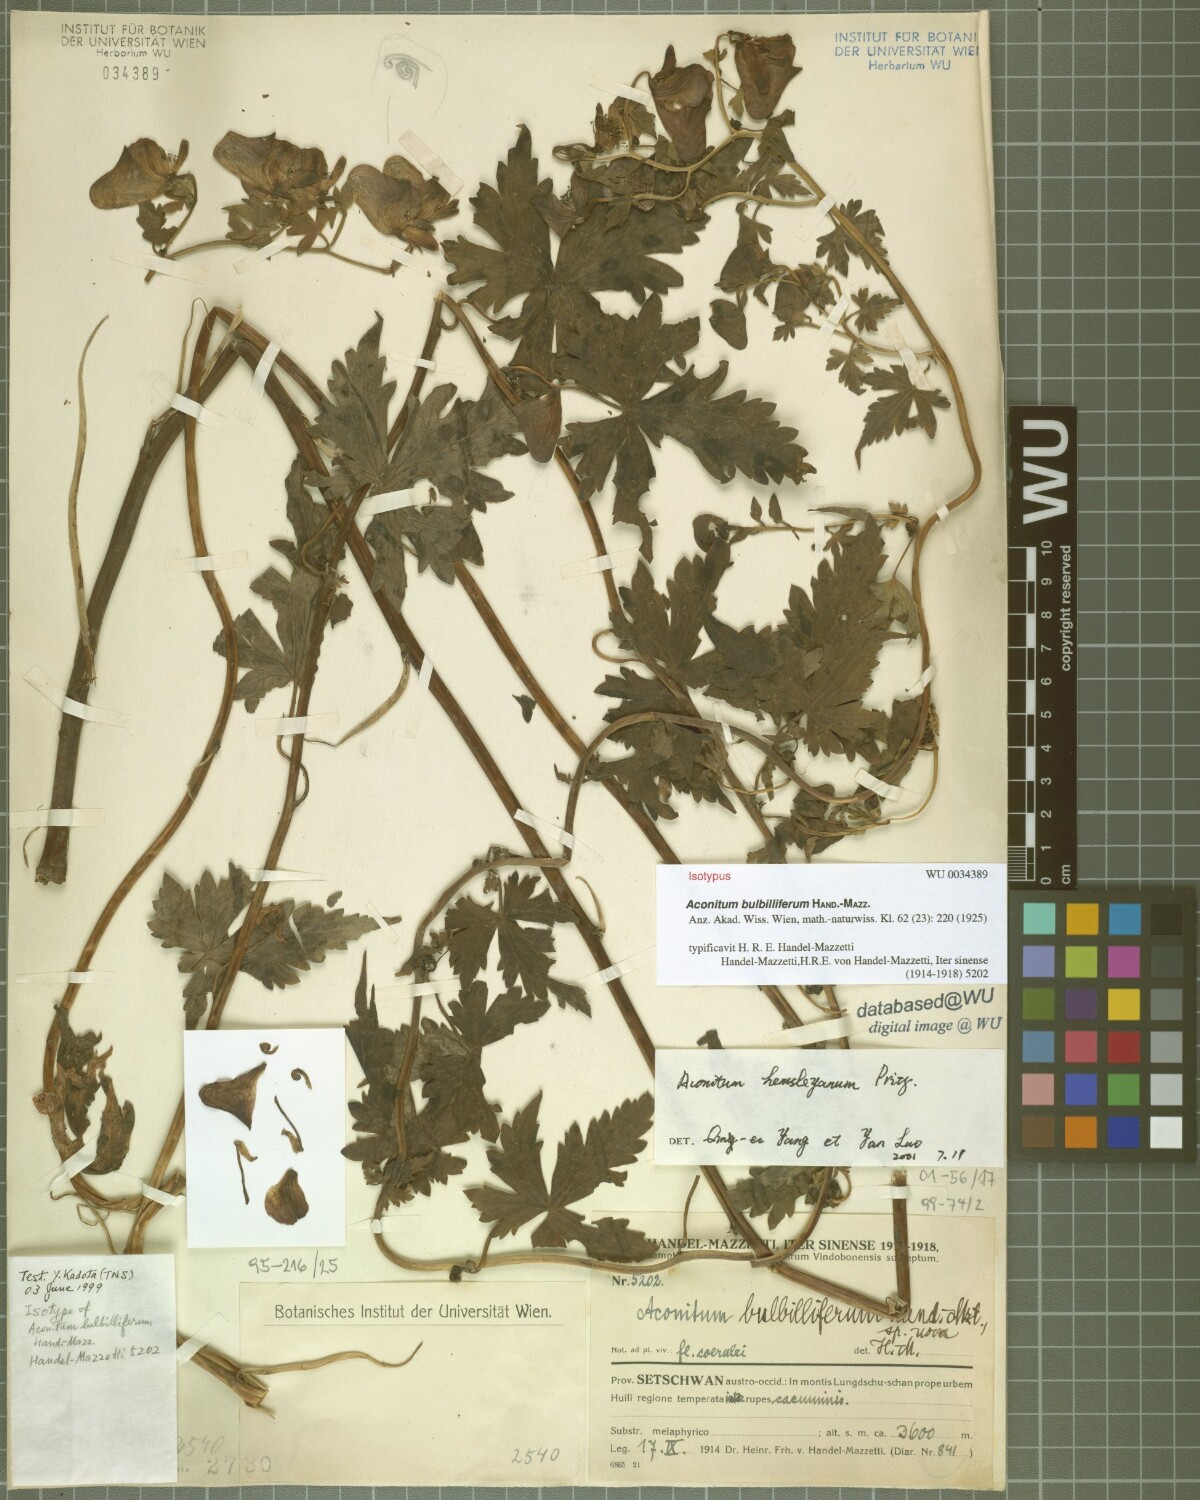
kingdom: Plantae
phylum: Tracheophyta
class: Magnoliopsida
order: Ranunculales
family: Ranunculaceae
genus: Aconitum
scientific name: Aconitum bulbilliferum
